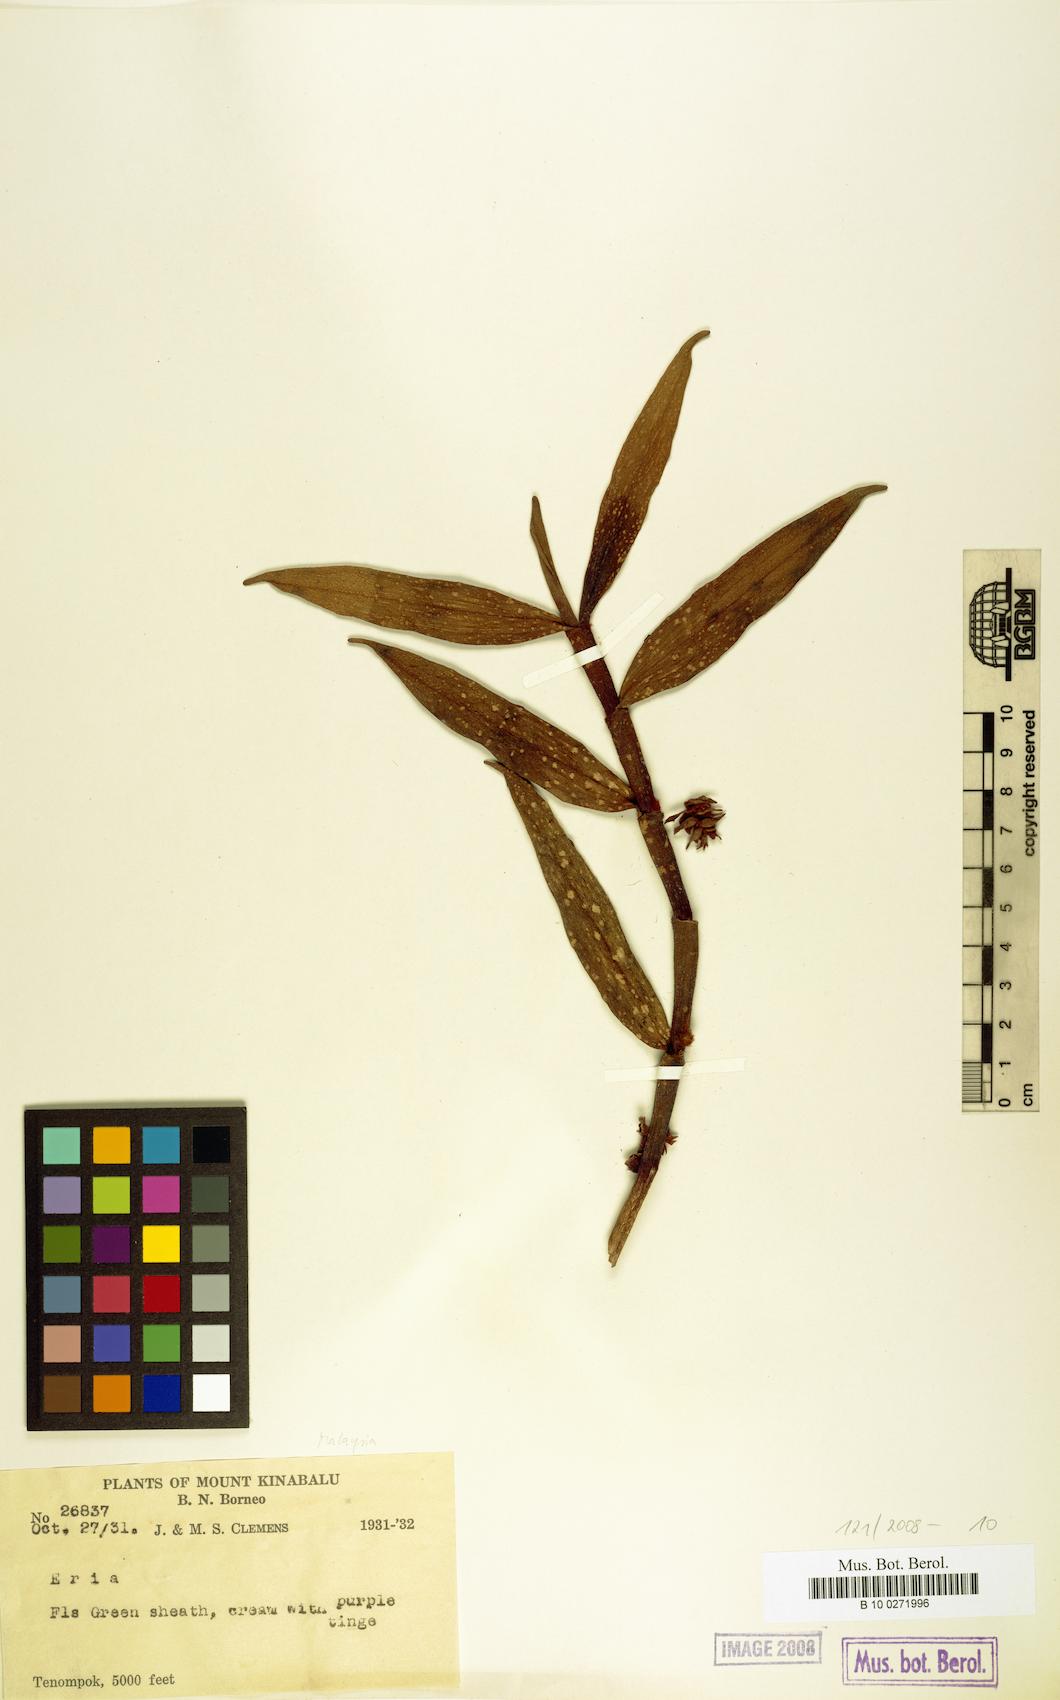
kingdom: Plantae
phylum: Tracheophyta
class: Liliopsida
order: Asparagales
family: Orchidaceae
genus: Eria
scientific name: Eria
